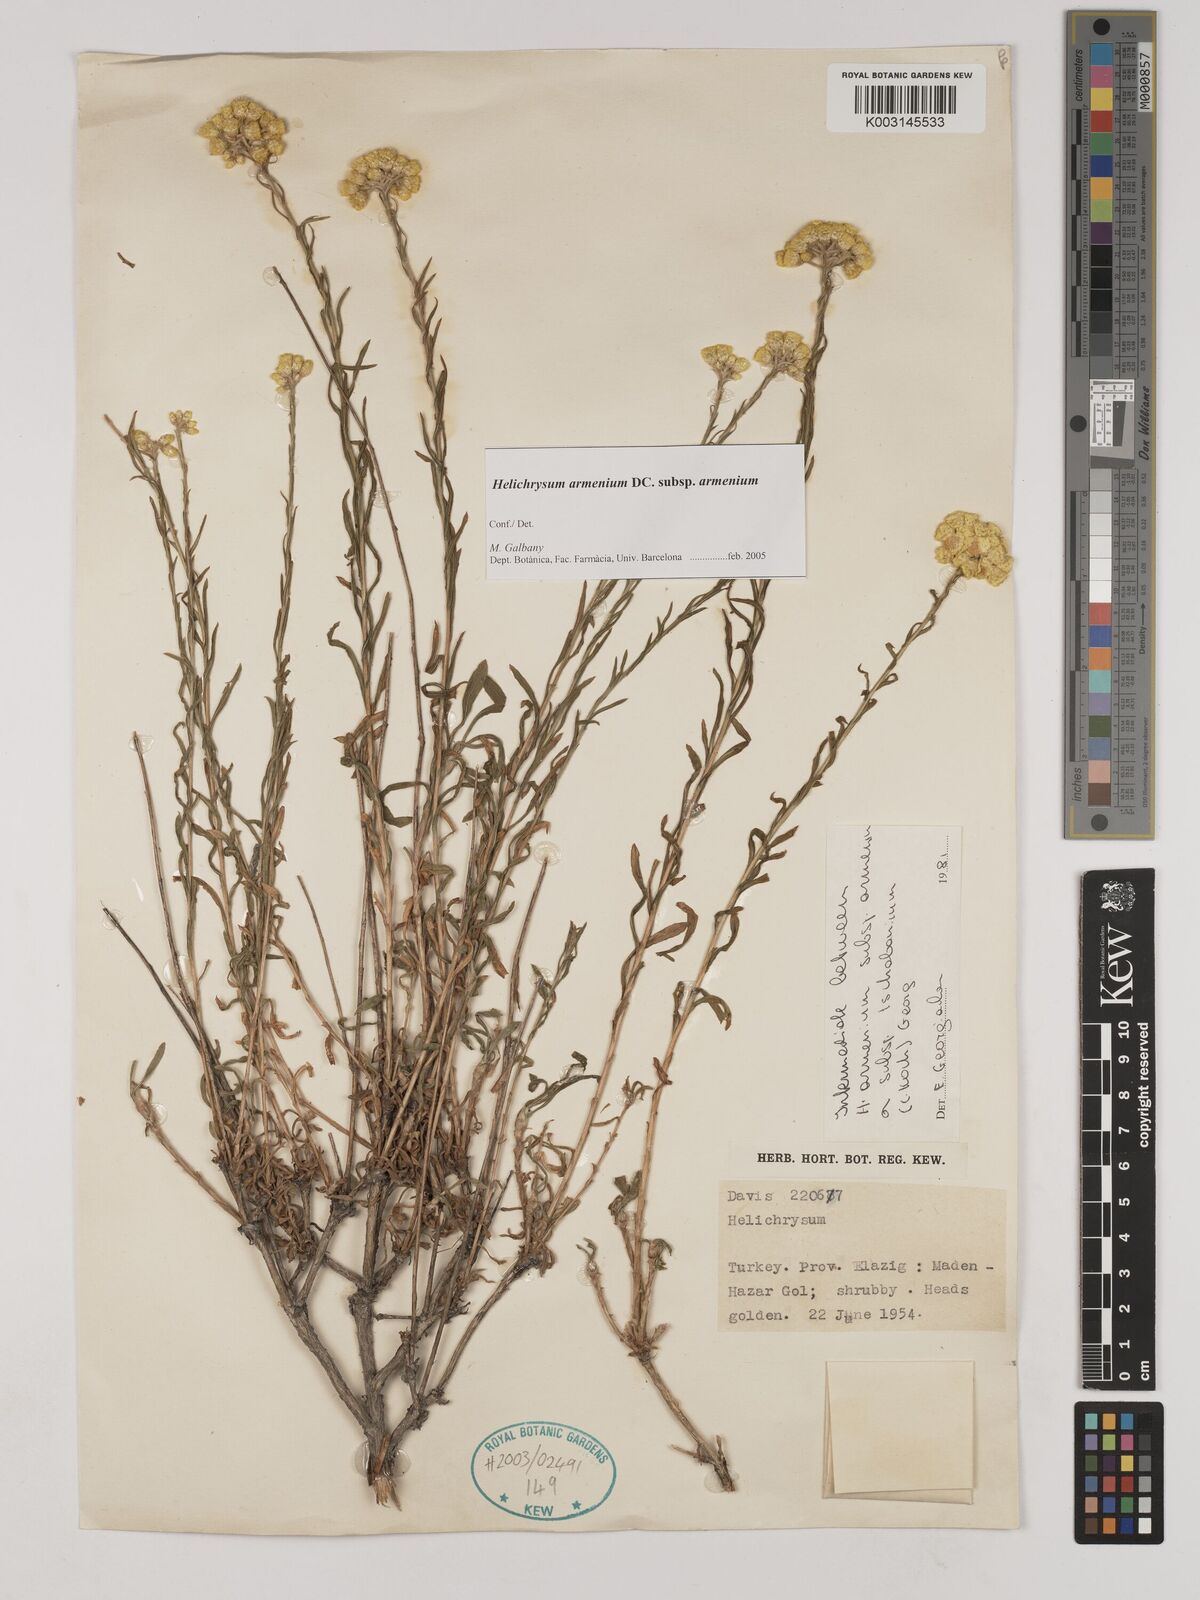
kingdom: Plantae
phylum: Tracheophyta
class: Magnoliopsida
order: Asterales
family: Asteraceae
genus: Helichrysum
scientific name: Helichrysum armenium
